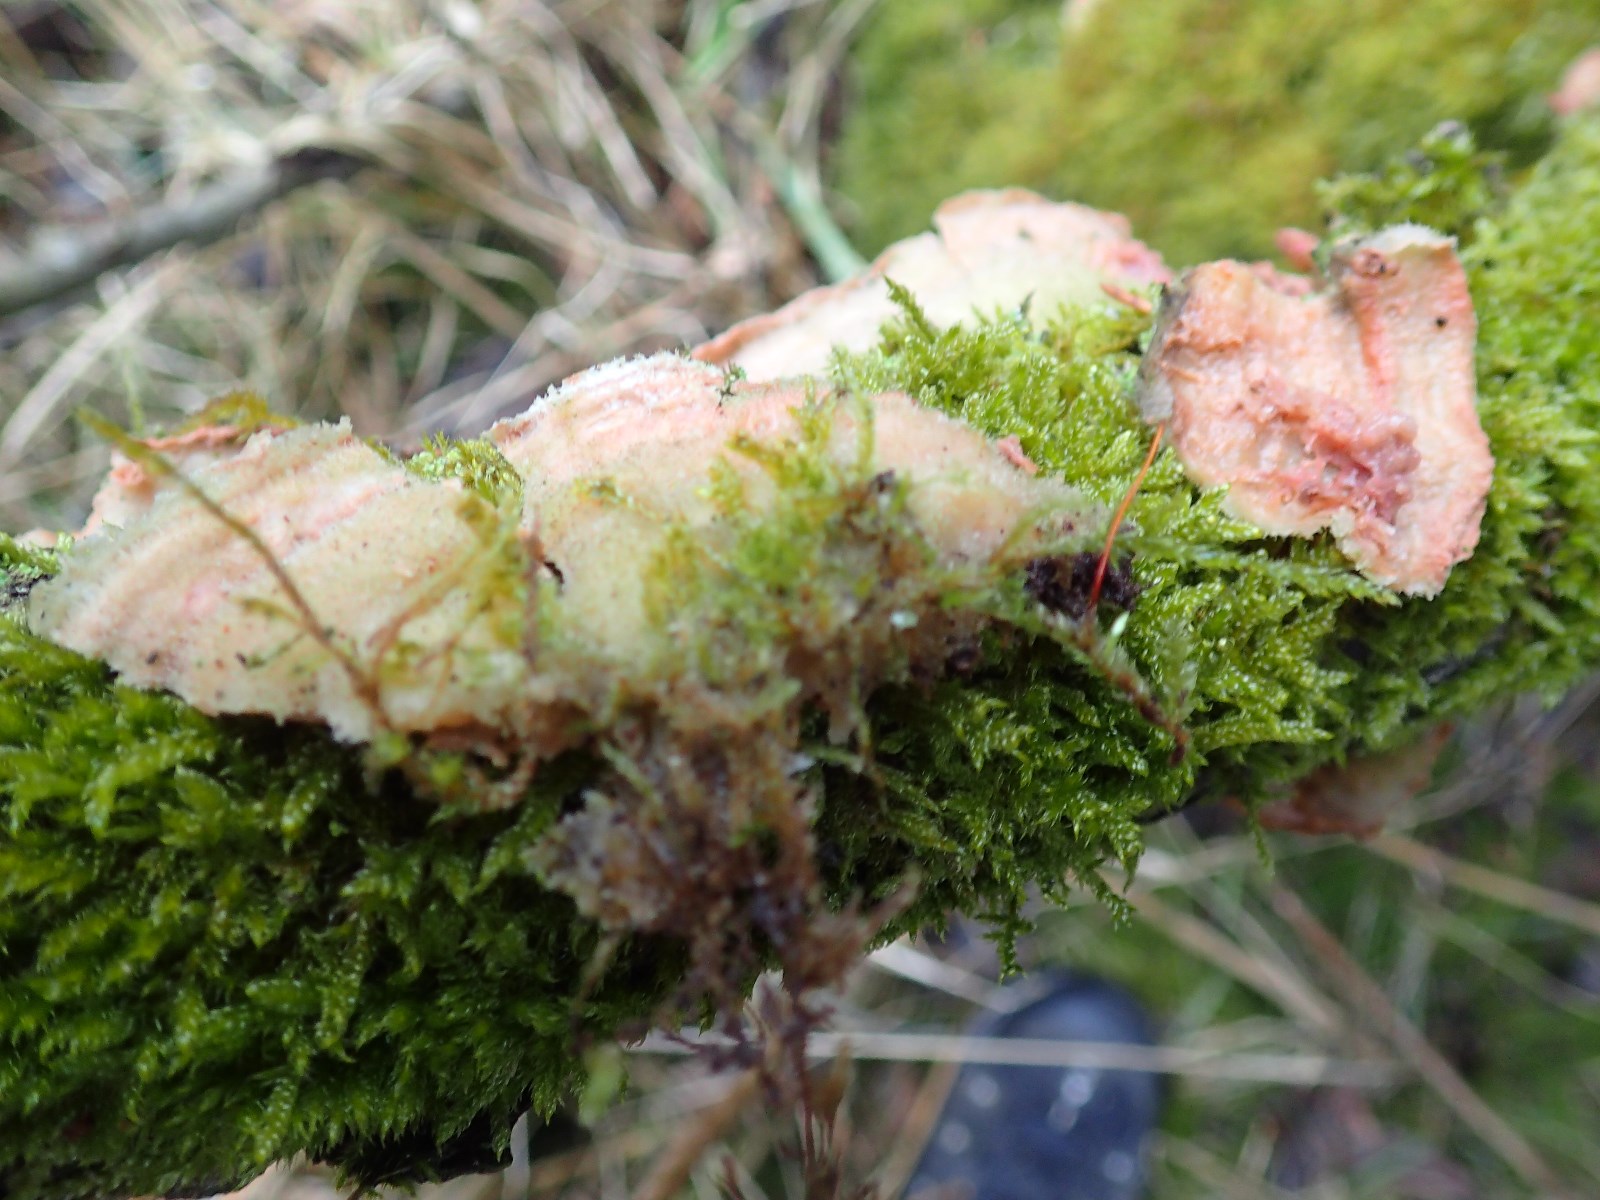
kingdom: Fungi
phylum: Basidiomycota
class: Agaricomycetes
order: Polyporales
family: Meruliaceae
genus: Phlebia
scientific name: Phlebia tremellosa
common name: bævrende åresvamp
